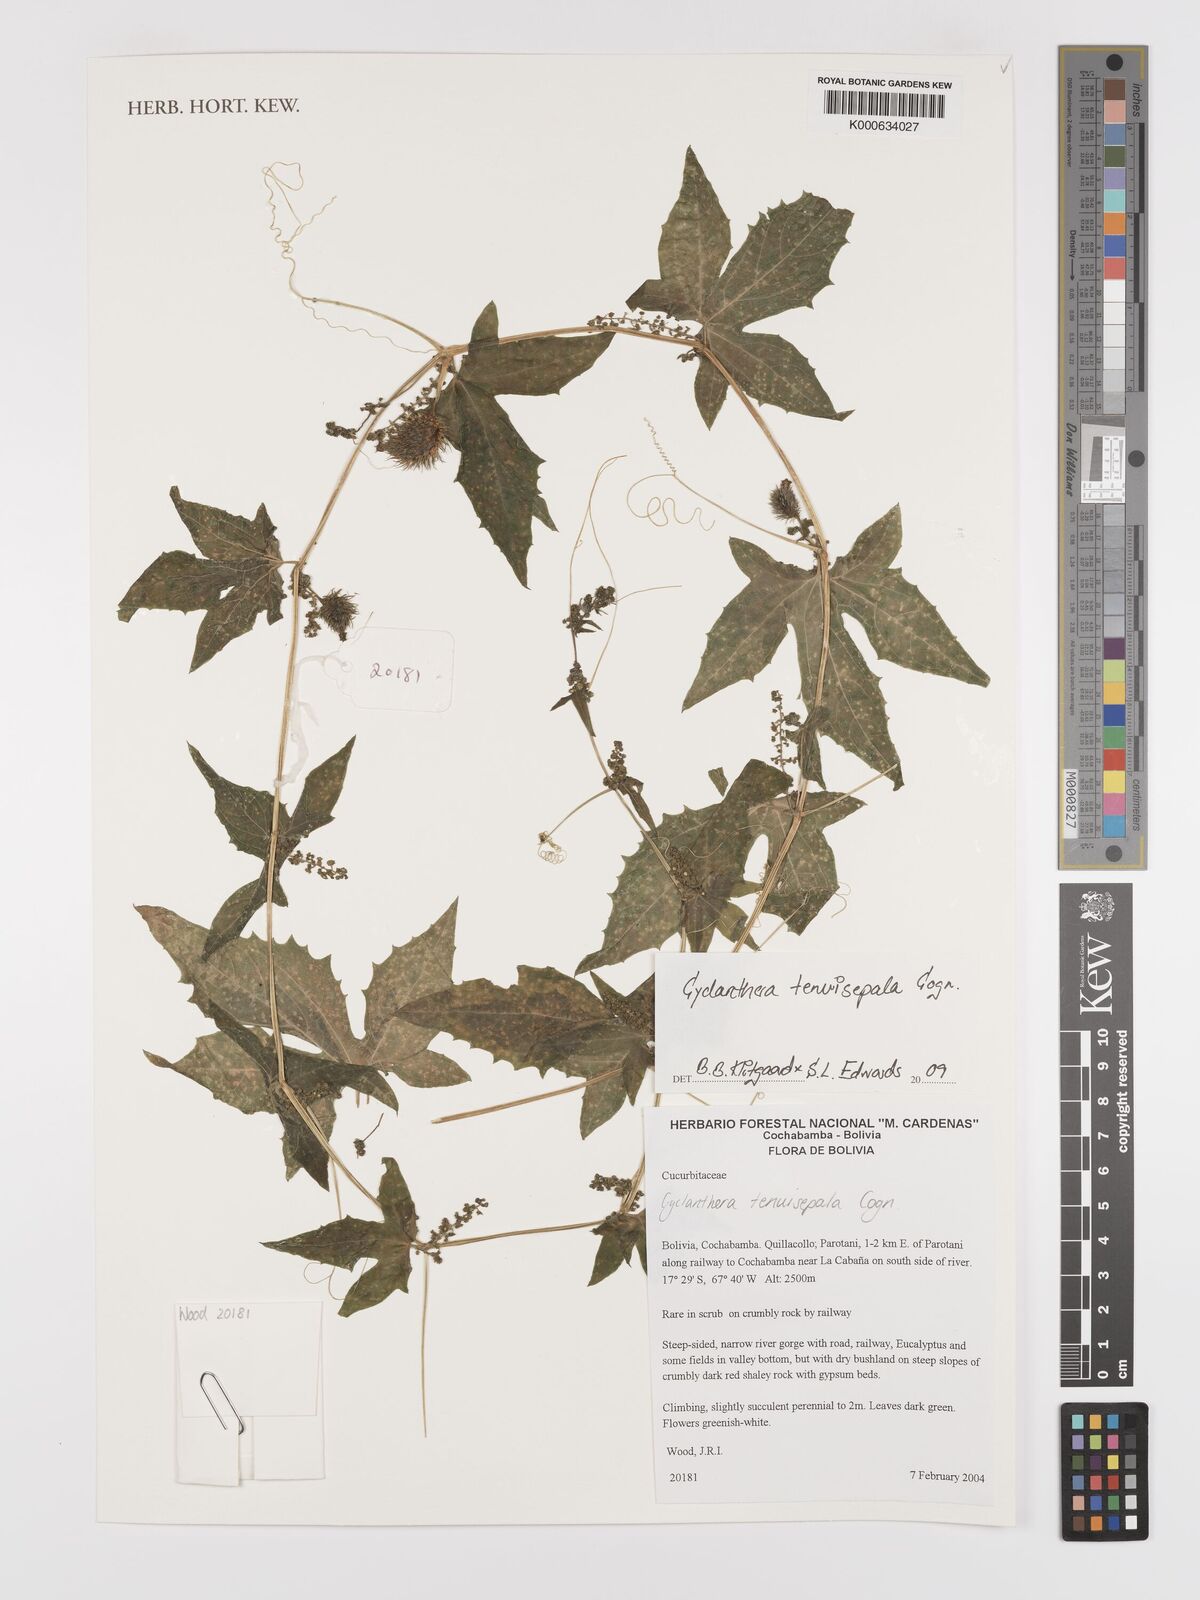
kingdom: Plantae
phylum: Tracheophyta
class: Magnoliopsida
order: Cucurbitales
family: Cucurbitaceae
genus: Cyclanthera
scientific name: Cyclanthera tenuisepala
